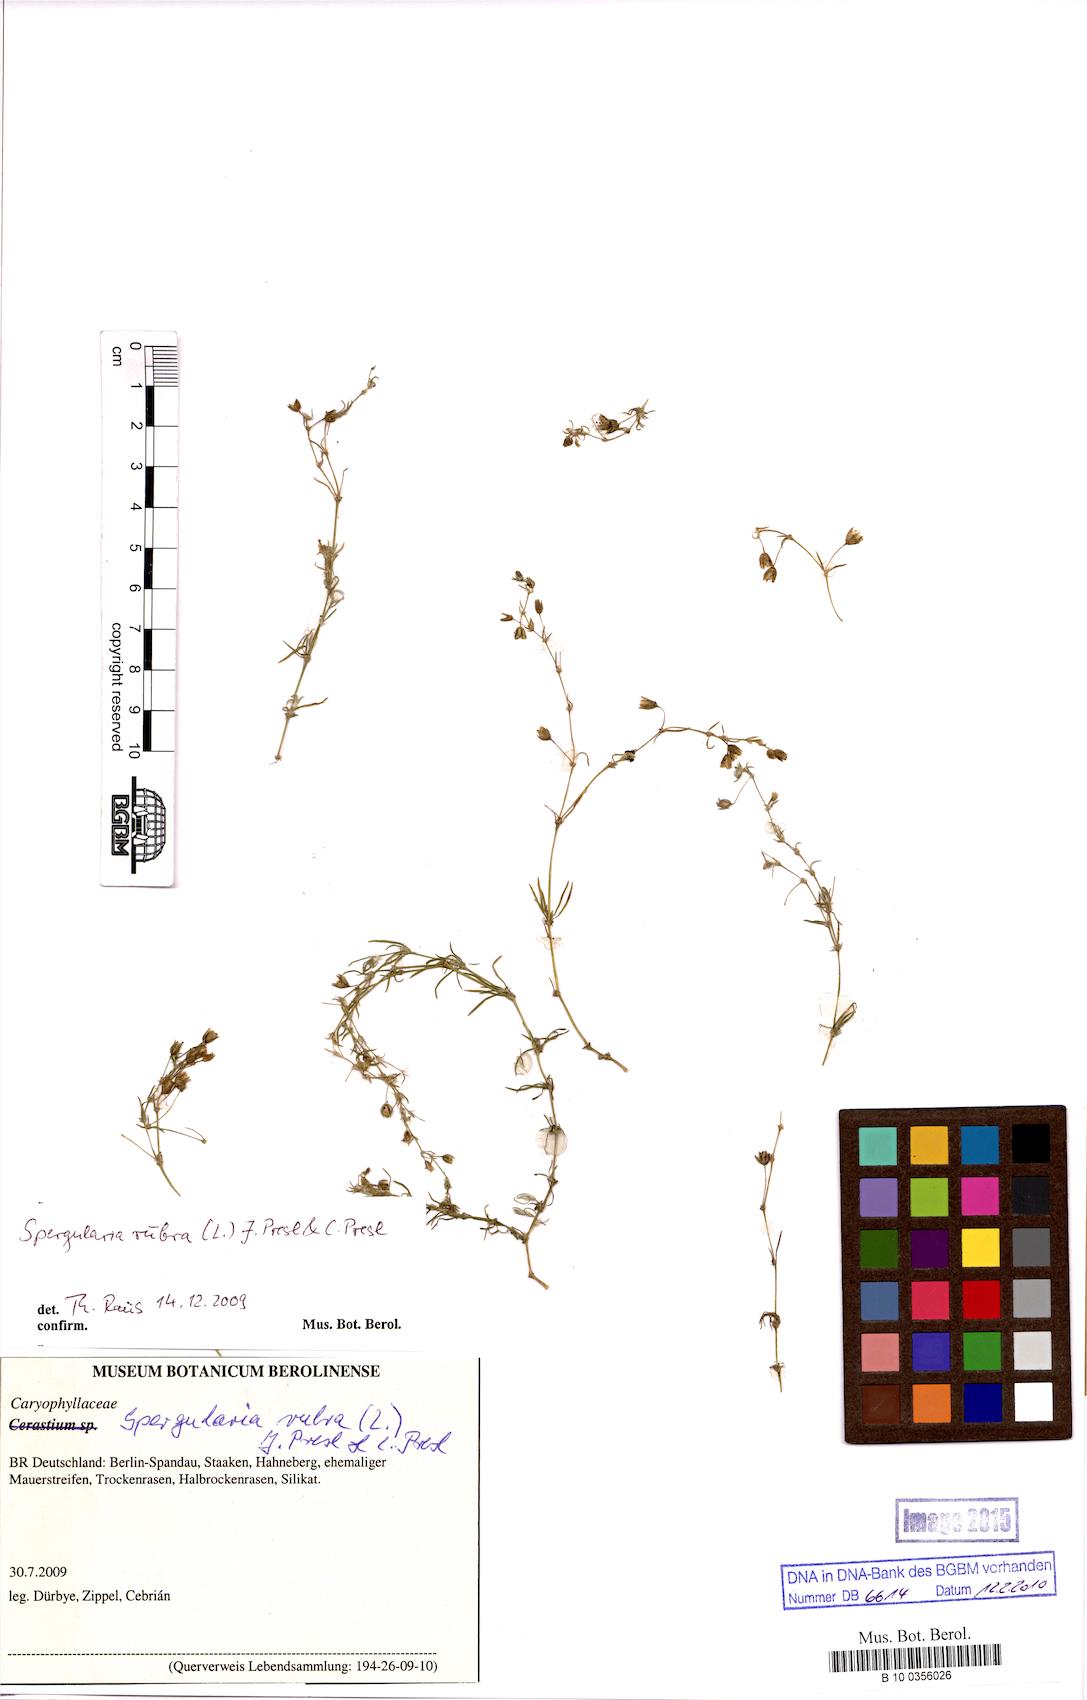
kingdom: Plantae
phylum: Tracheophyta
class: Magnoliopsida
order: Caryophyllales
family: Caryophyllaceae
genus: Spergularia
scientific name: Spergularia rubra
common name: Red sand-spurrey
